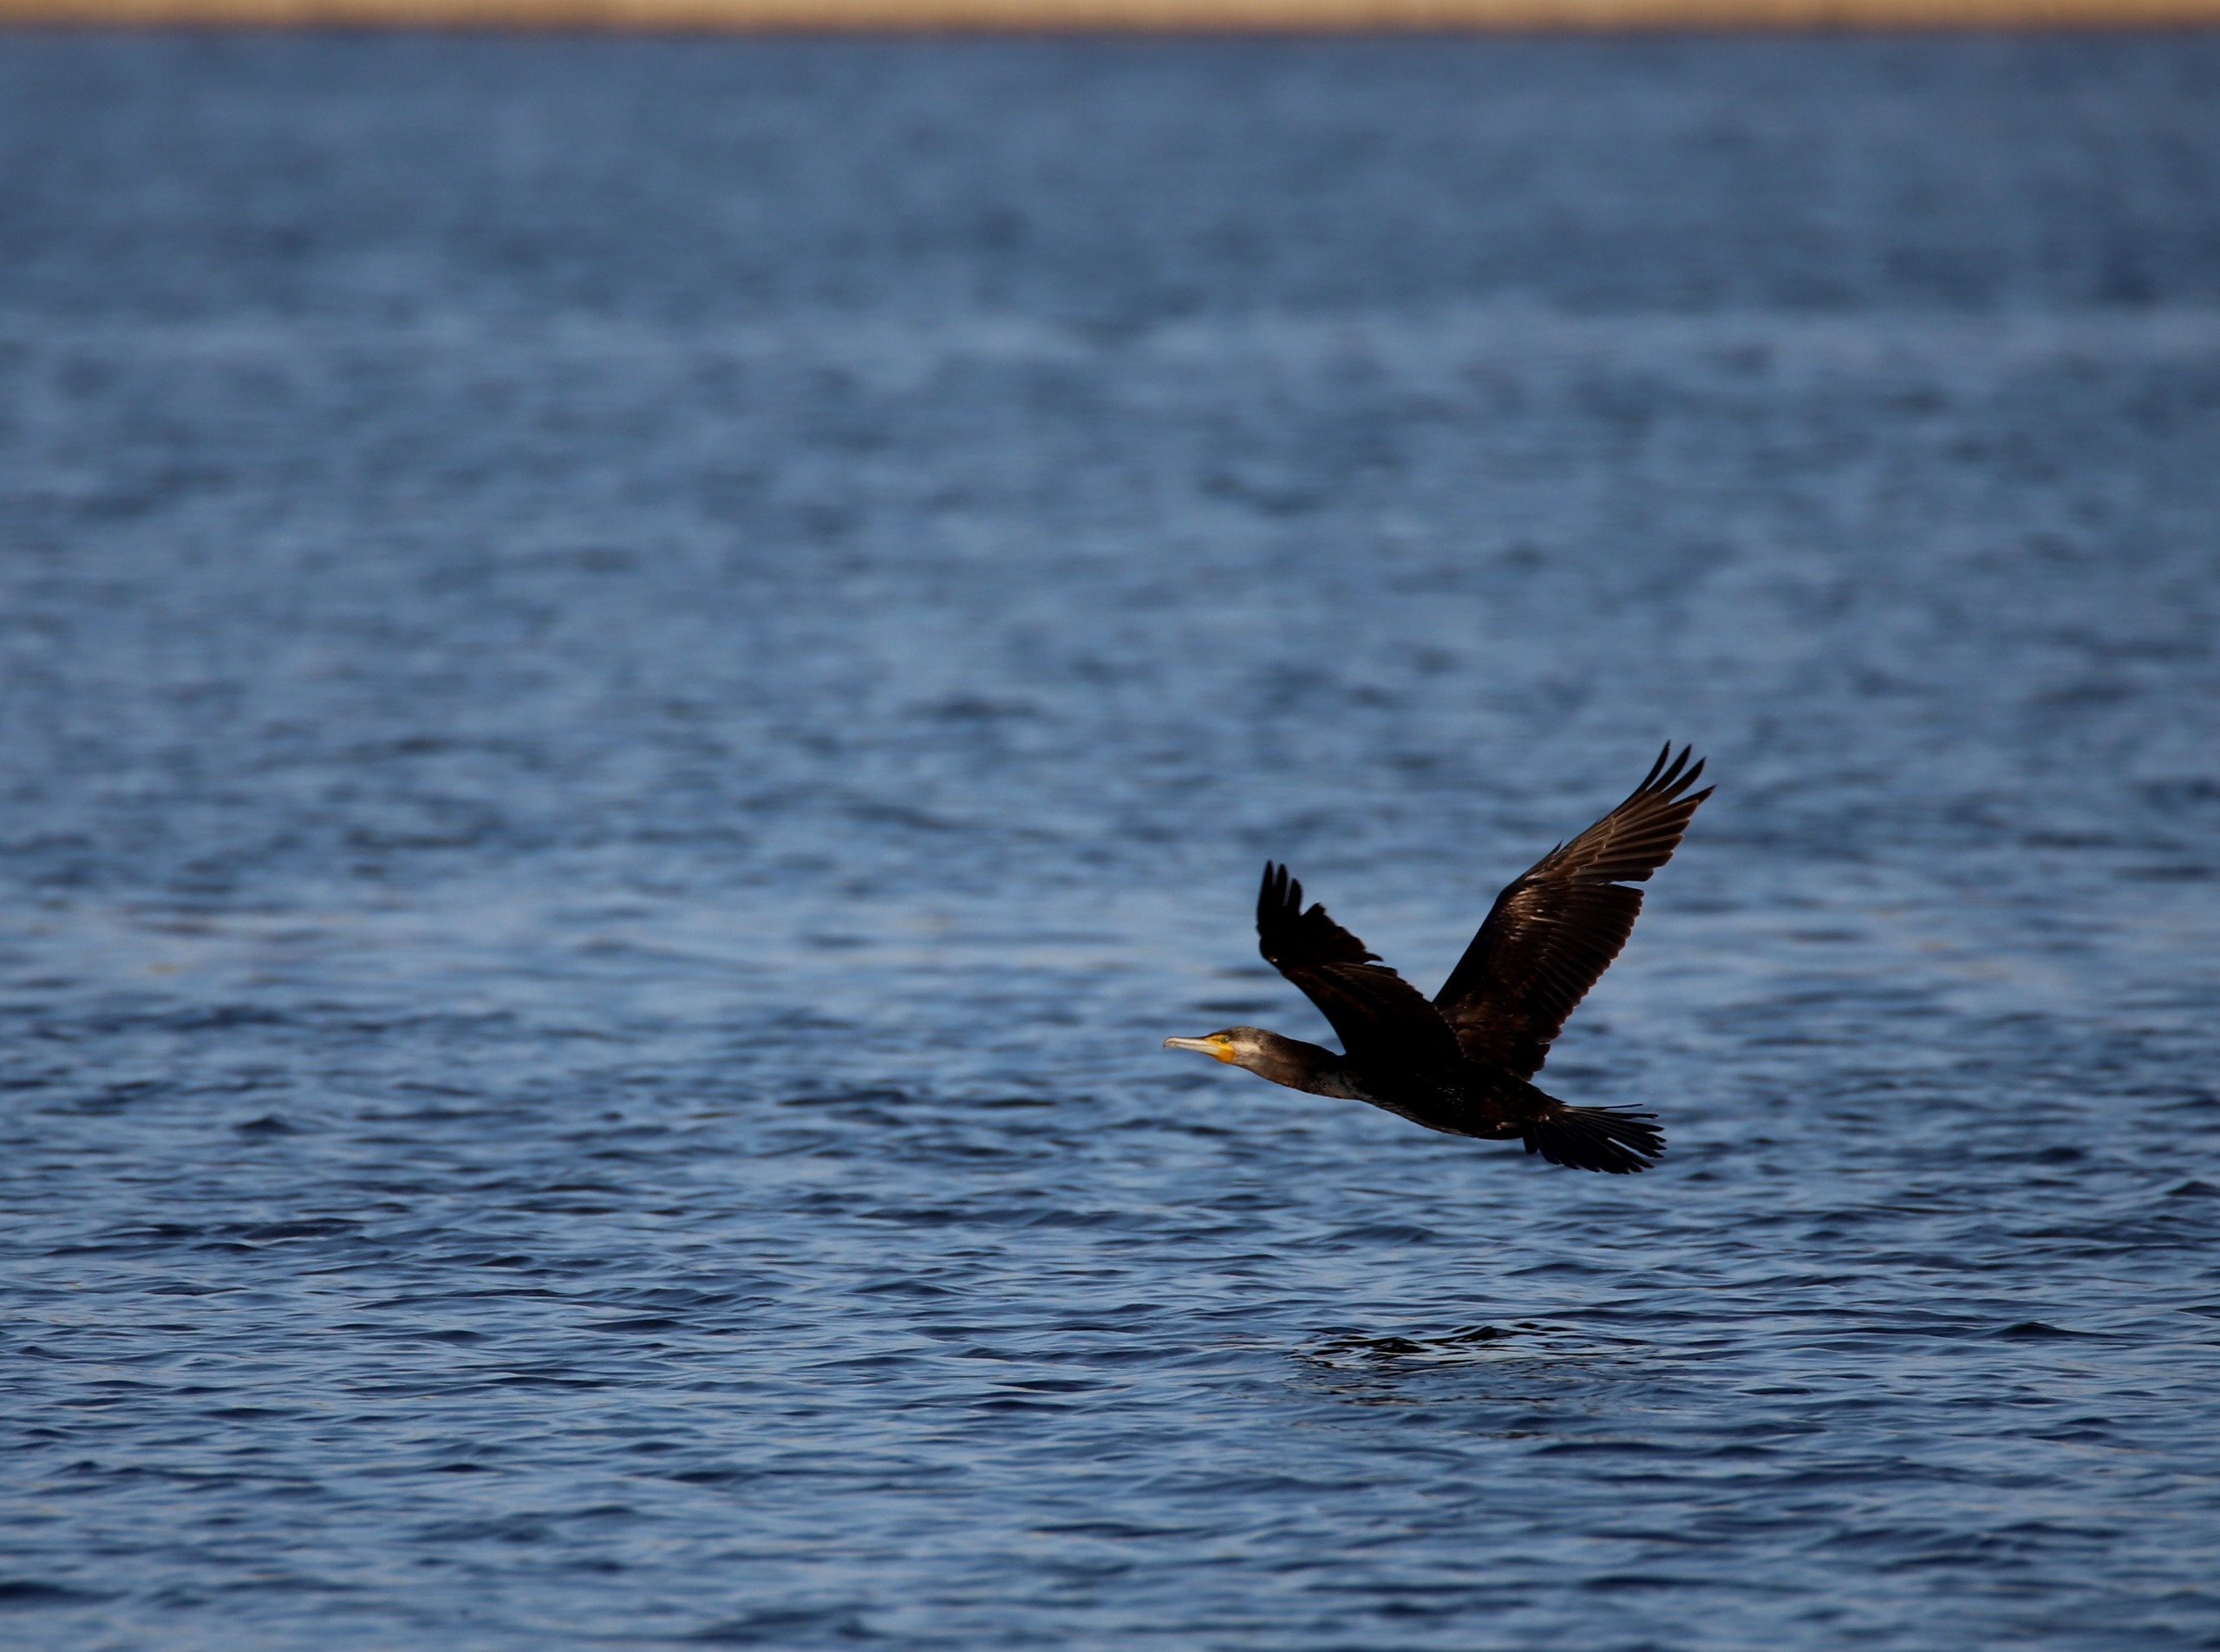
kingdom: Animalia
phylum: Chordata
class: Aves
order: Suliformes
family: Phalacrocoracidae
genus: Phalacrocorax
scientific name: Phalacrocorax carbo
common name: Skarv
